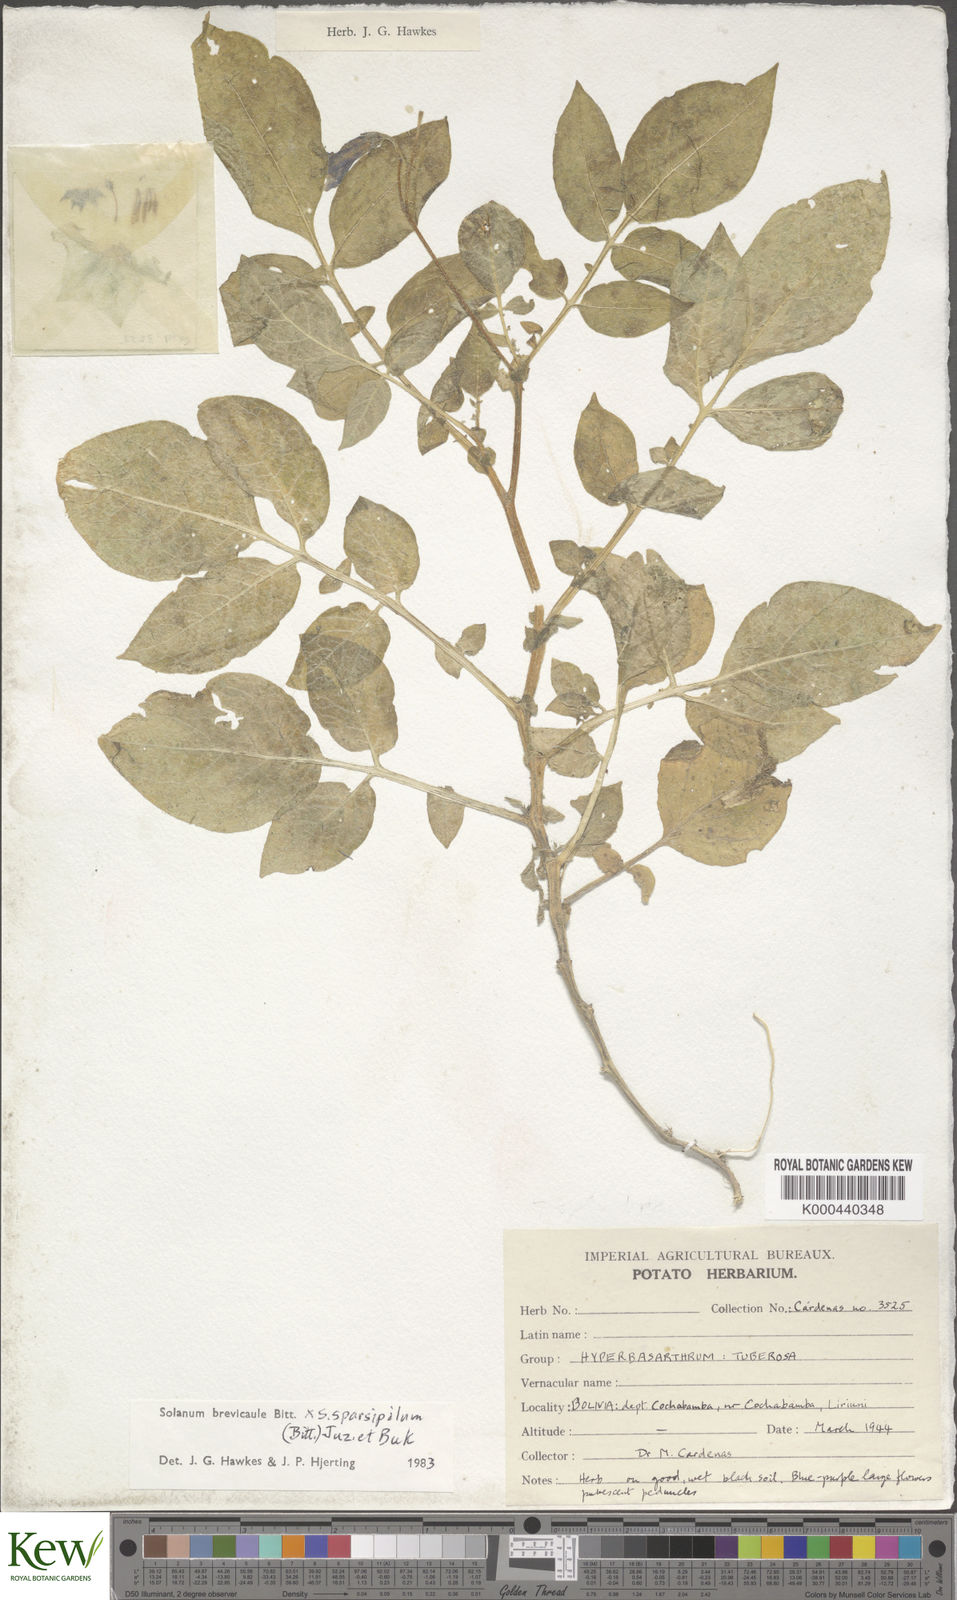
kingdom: Plantae
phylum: Tracheophyta
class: Magnoliopsida
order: Solanales
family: Solanaceae
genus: Solanum
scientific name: Solanum brevicaule
